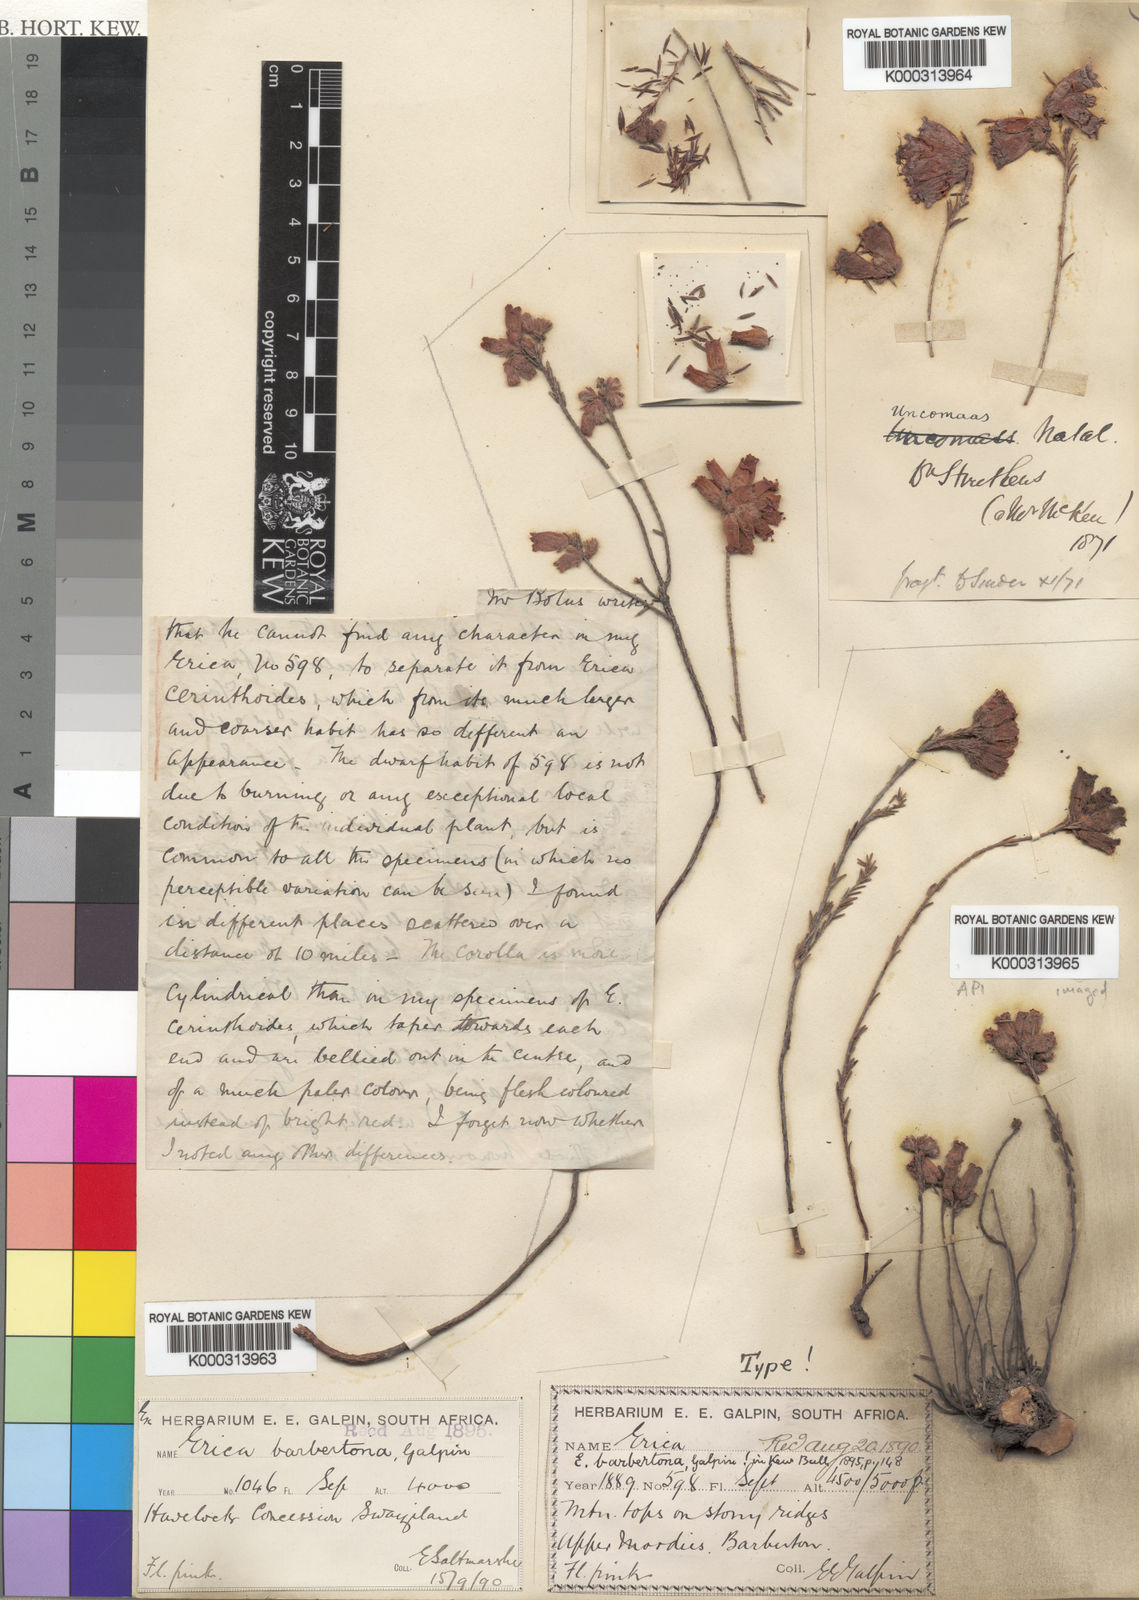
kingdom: Plantae
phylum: Tracheophyta
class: Magnoliopsida
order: Ericales
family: Ericaceae
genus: Erica
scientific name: Erica cerinthoides
